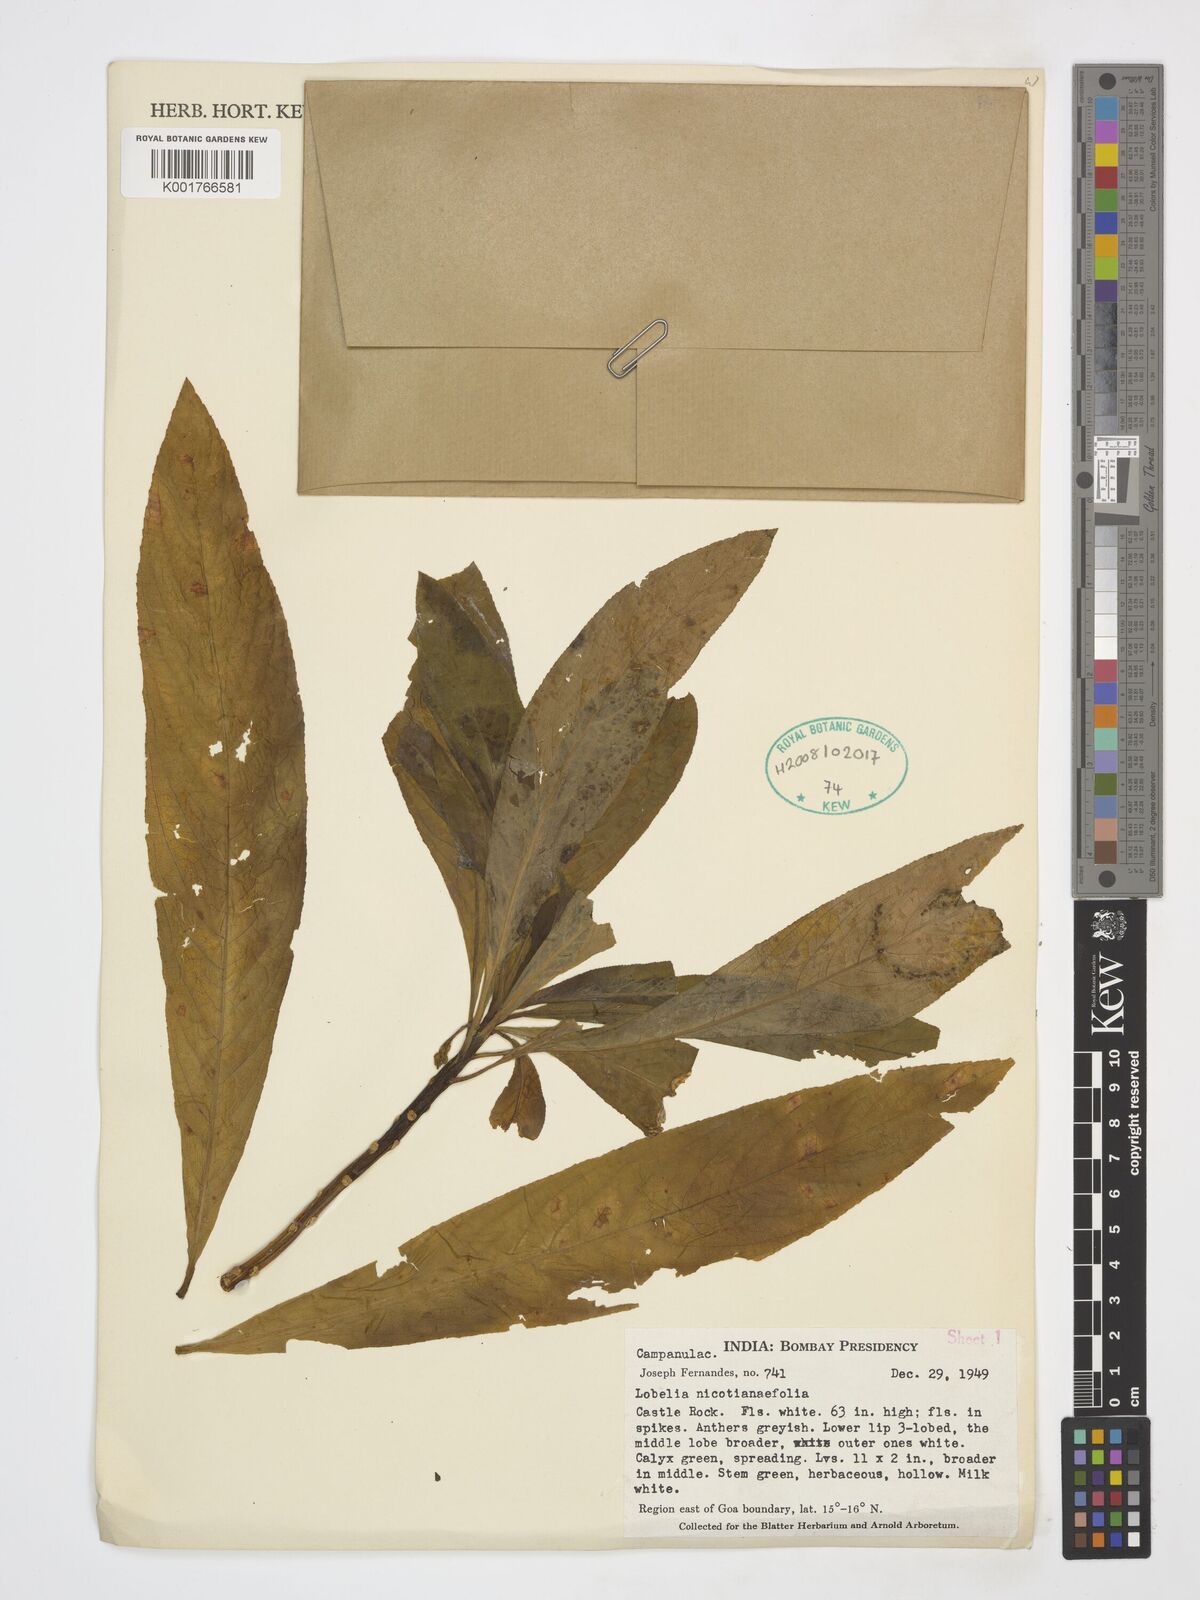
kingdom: Plantae
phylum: Tracheophyta
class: Magnoliopsida
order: Asterales
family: Campanulaceae
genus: Lobelia
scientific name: Lobelia nicotianifolia
